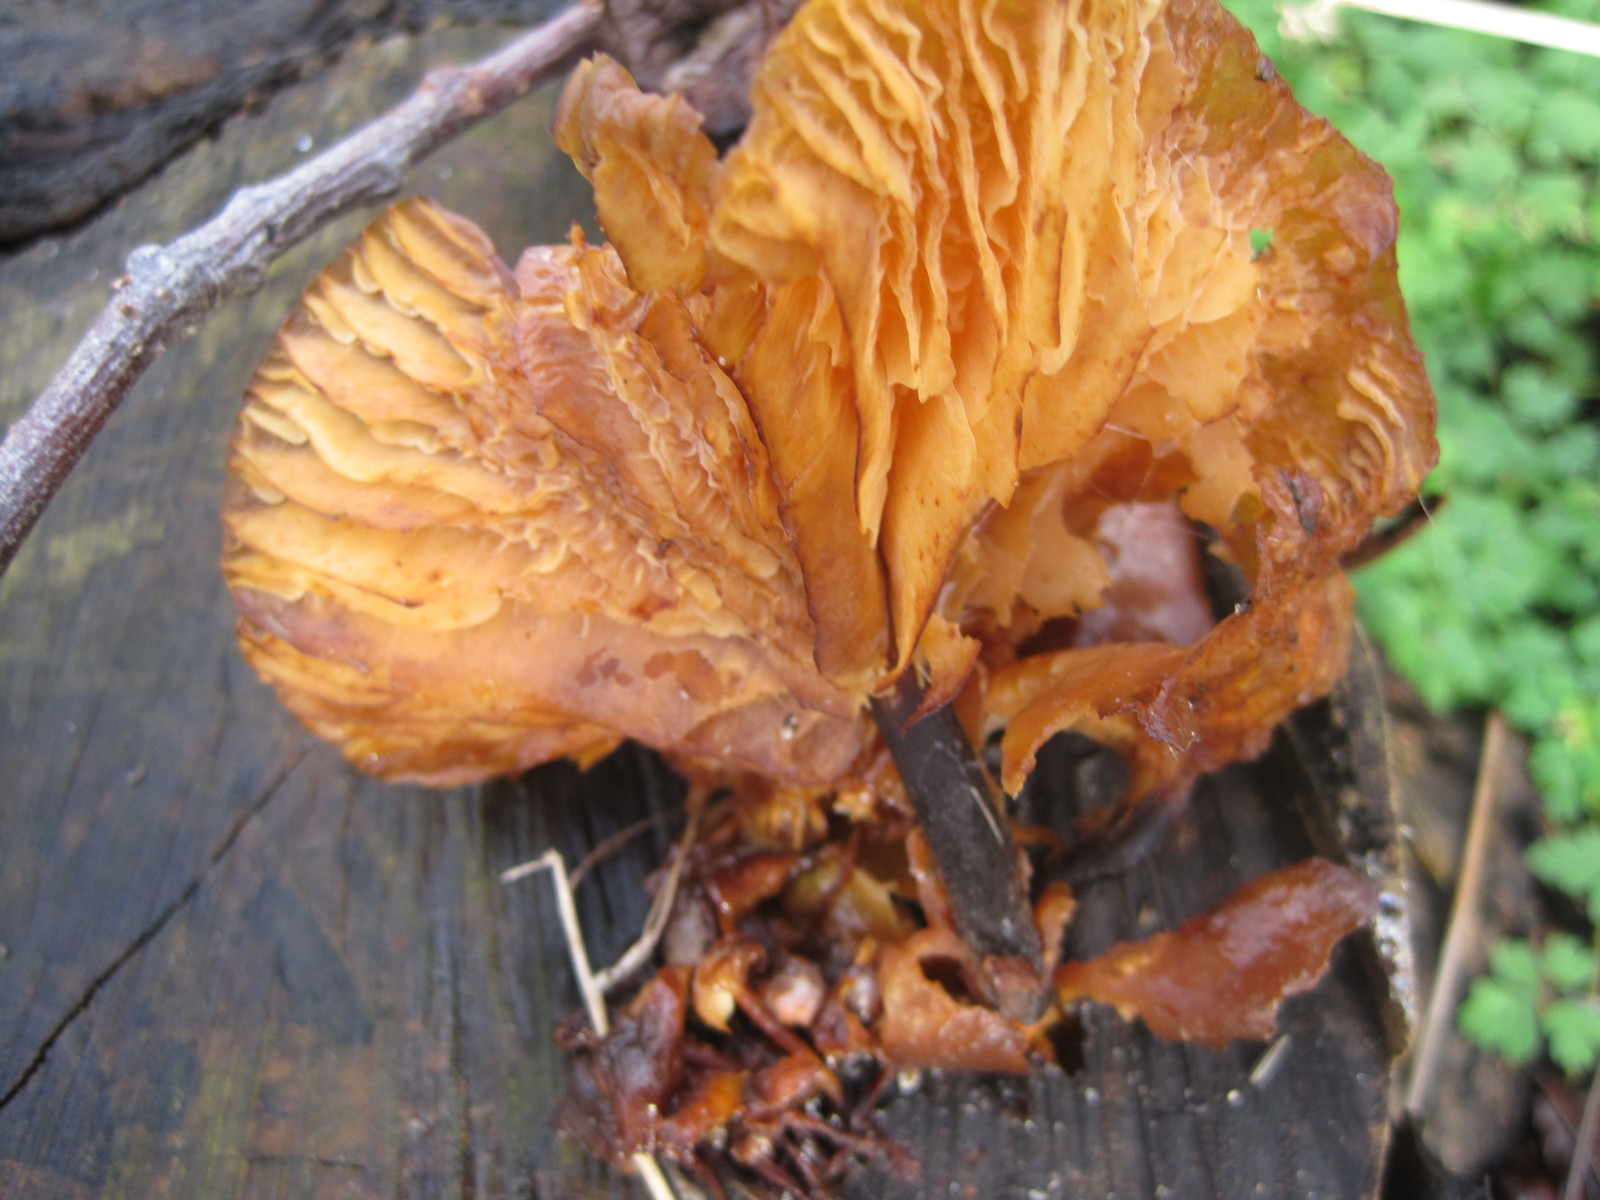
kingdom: Fungi
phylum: Basidiomycota
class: Agaricomycetes
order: Agaricales
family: Physalacriaceae
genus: Flammulina
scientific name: Flammulina velutipes
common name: gul fløjlsfod
